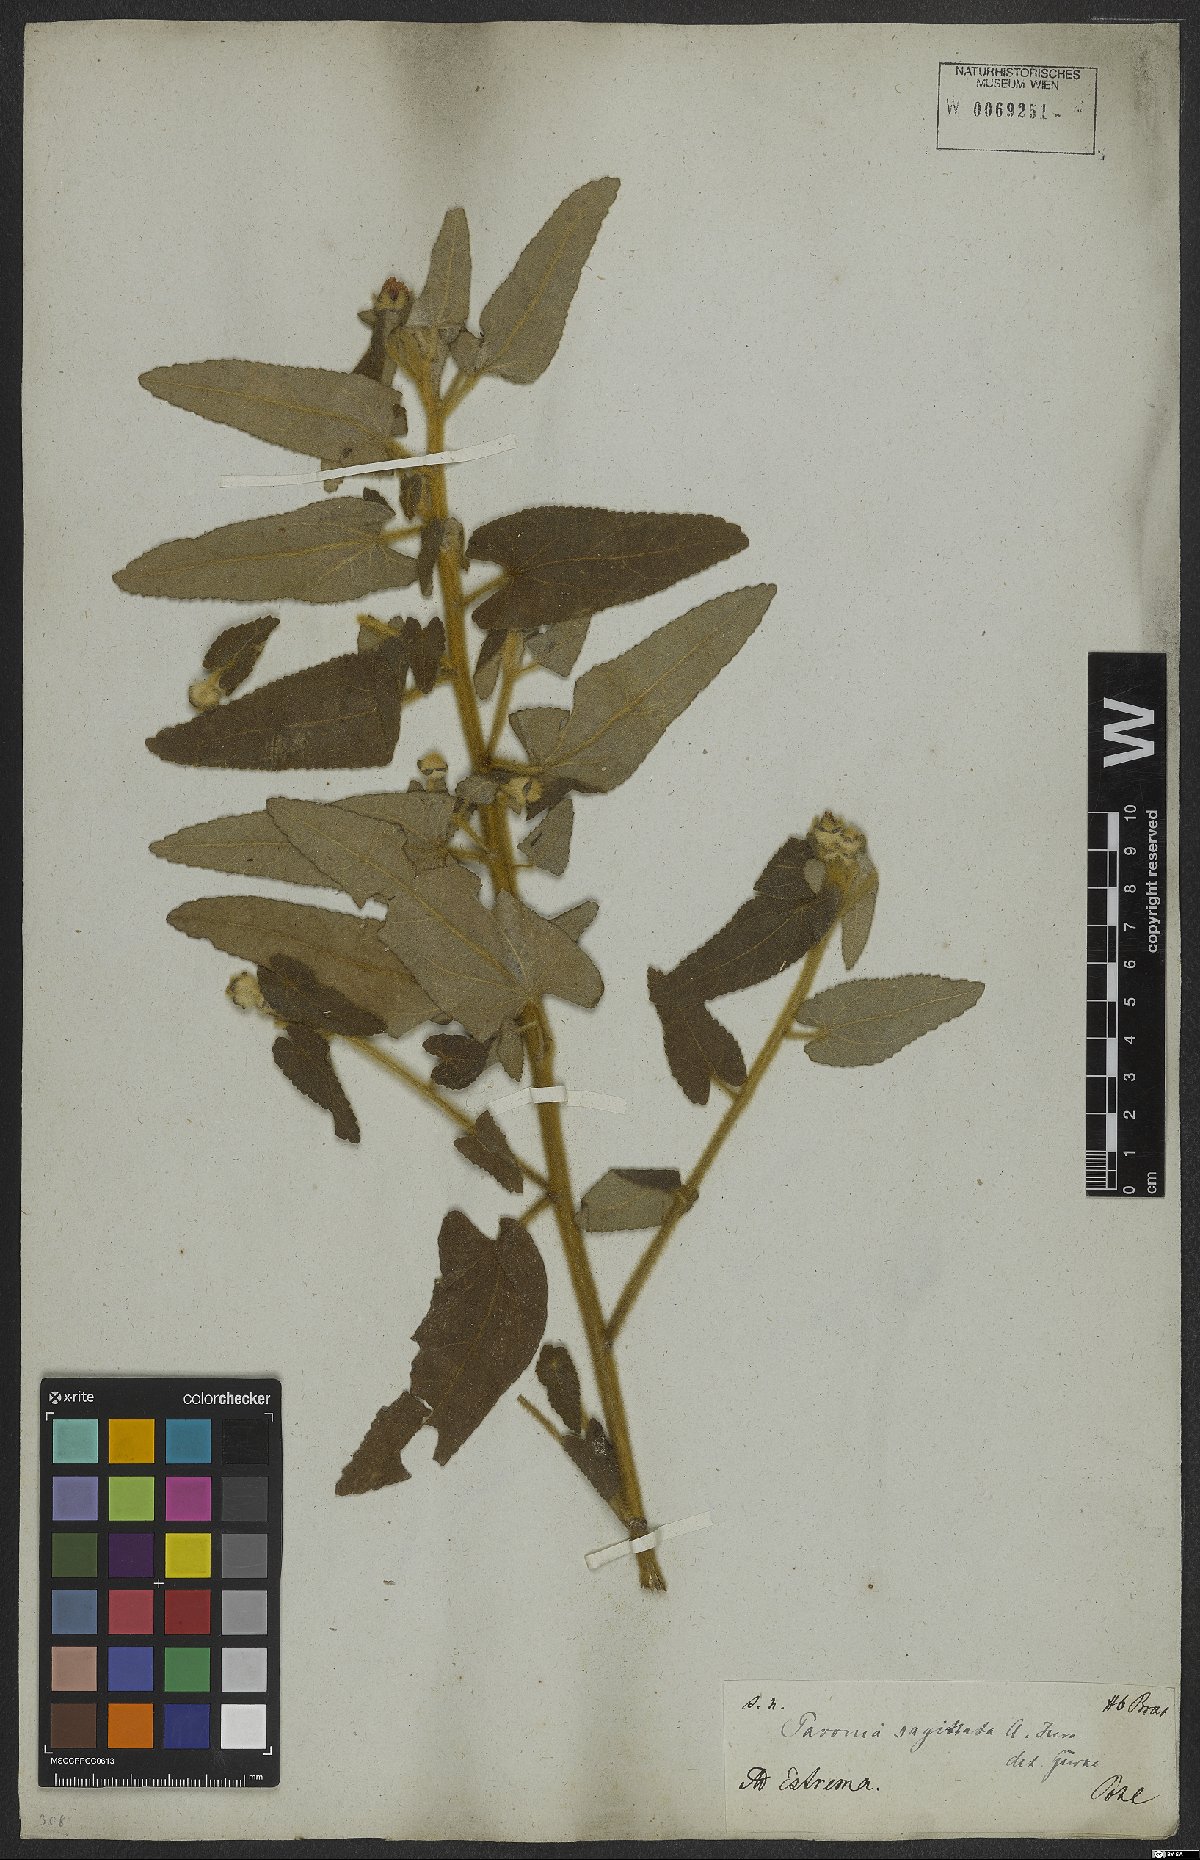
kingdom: Plantae
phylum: Tracheophyta
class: Magnoliopsida
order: Malvales
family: Malvaceae
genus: Pavonia
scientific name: Pavonia sagittata
